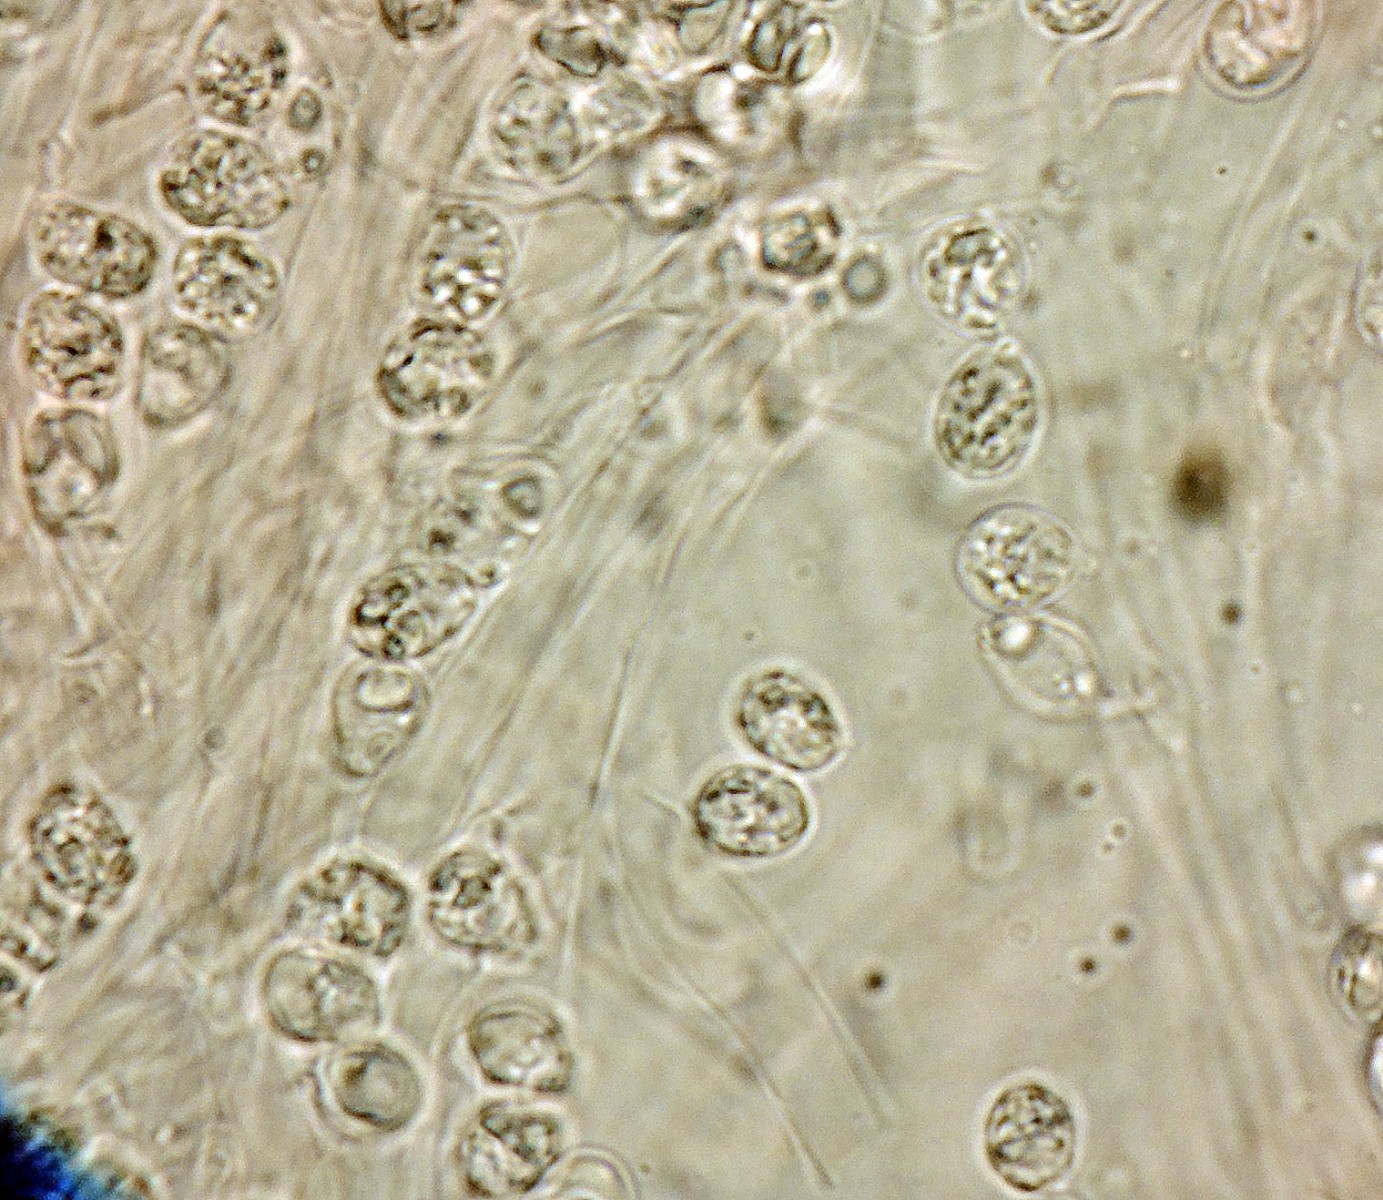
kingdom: Fungi
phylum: Basidiomycota
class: Agaricomycetes
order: Agaricales
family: Omphalotaceae
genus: Rhodocollybia
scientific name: Rhodocollybia maculata
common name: plettet fladhat
